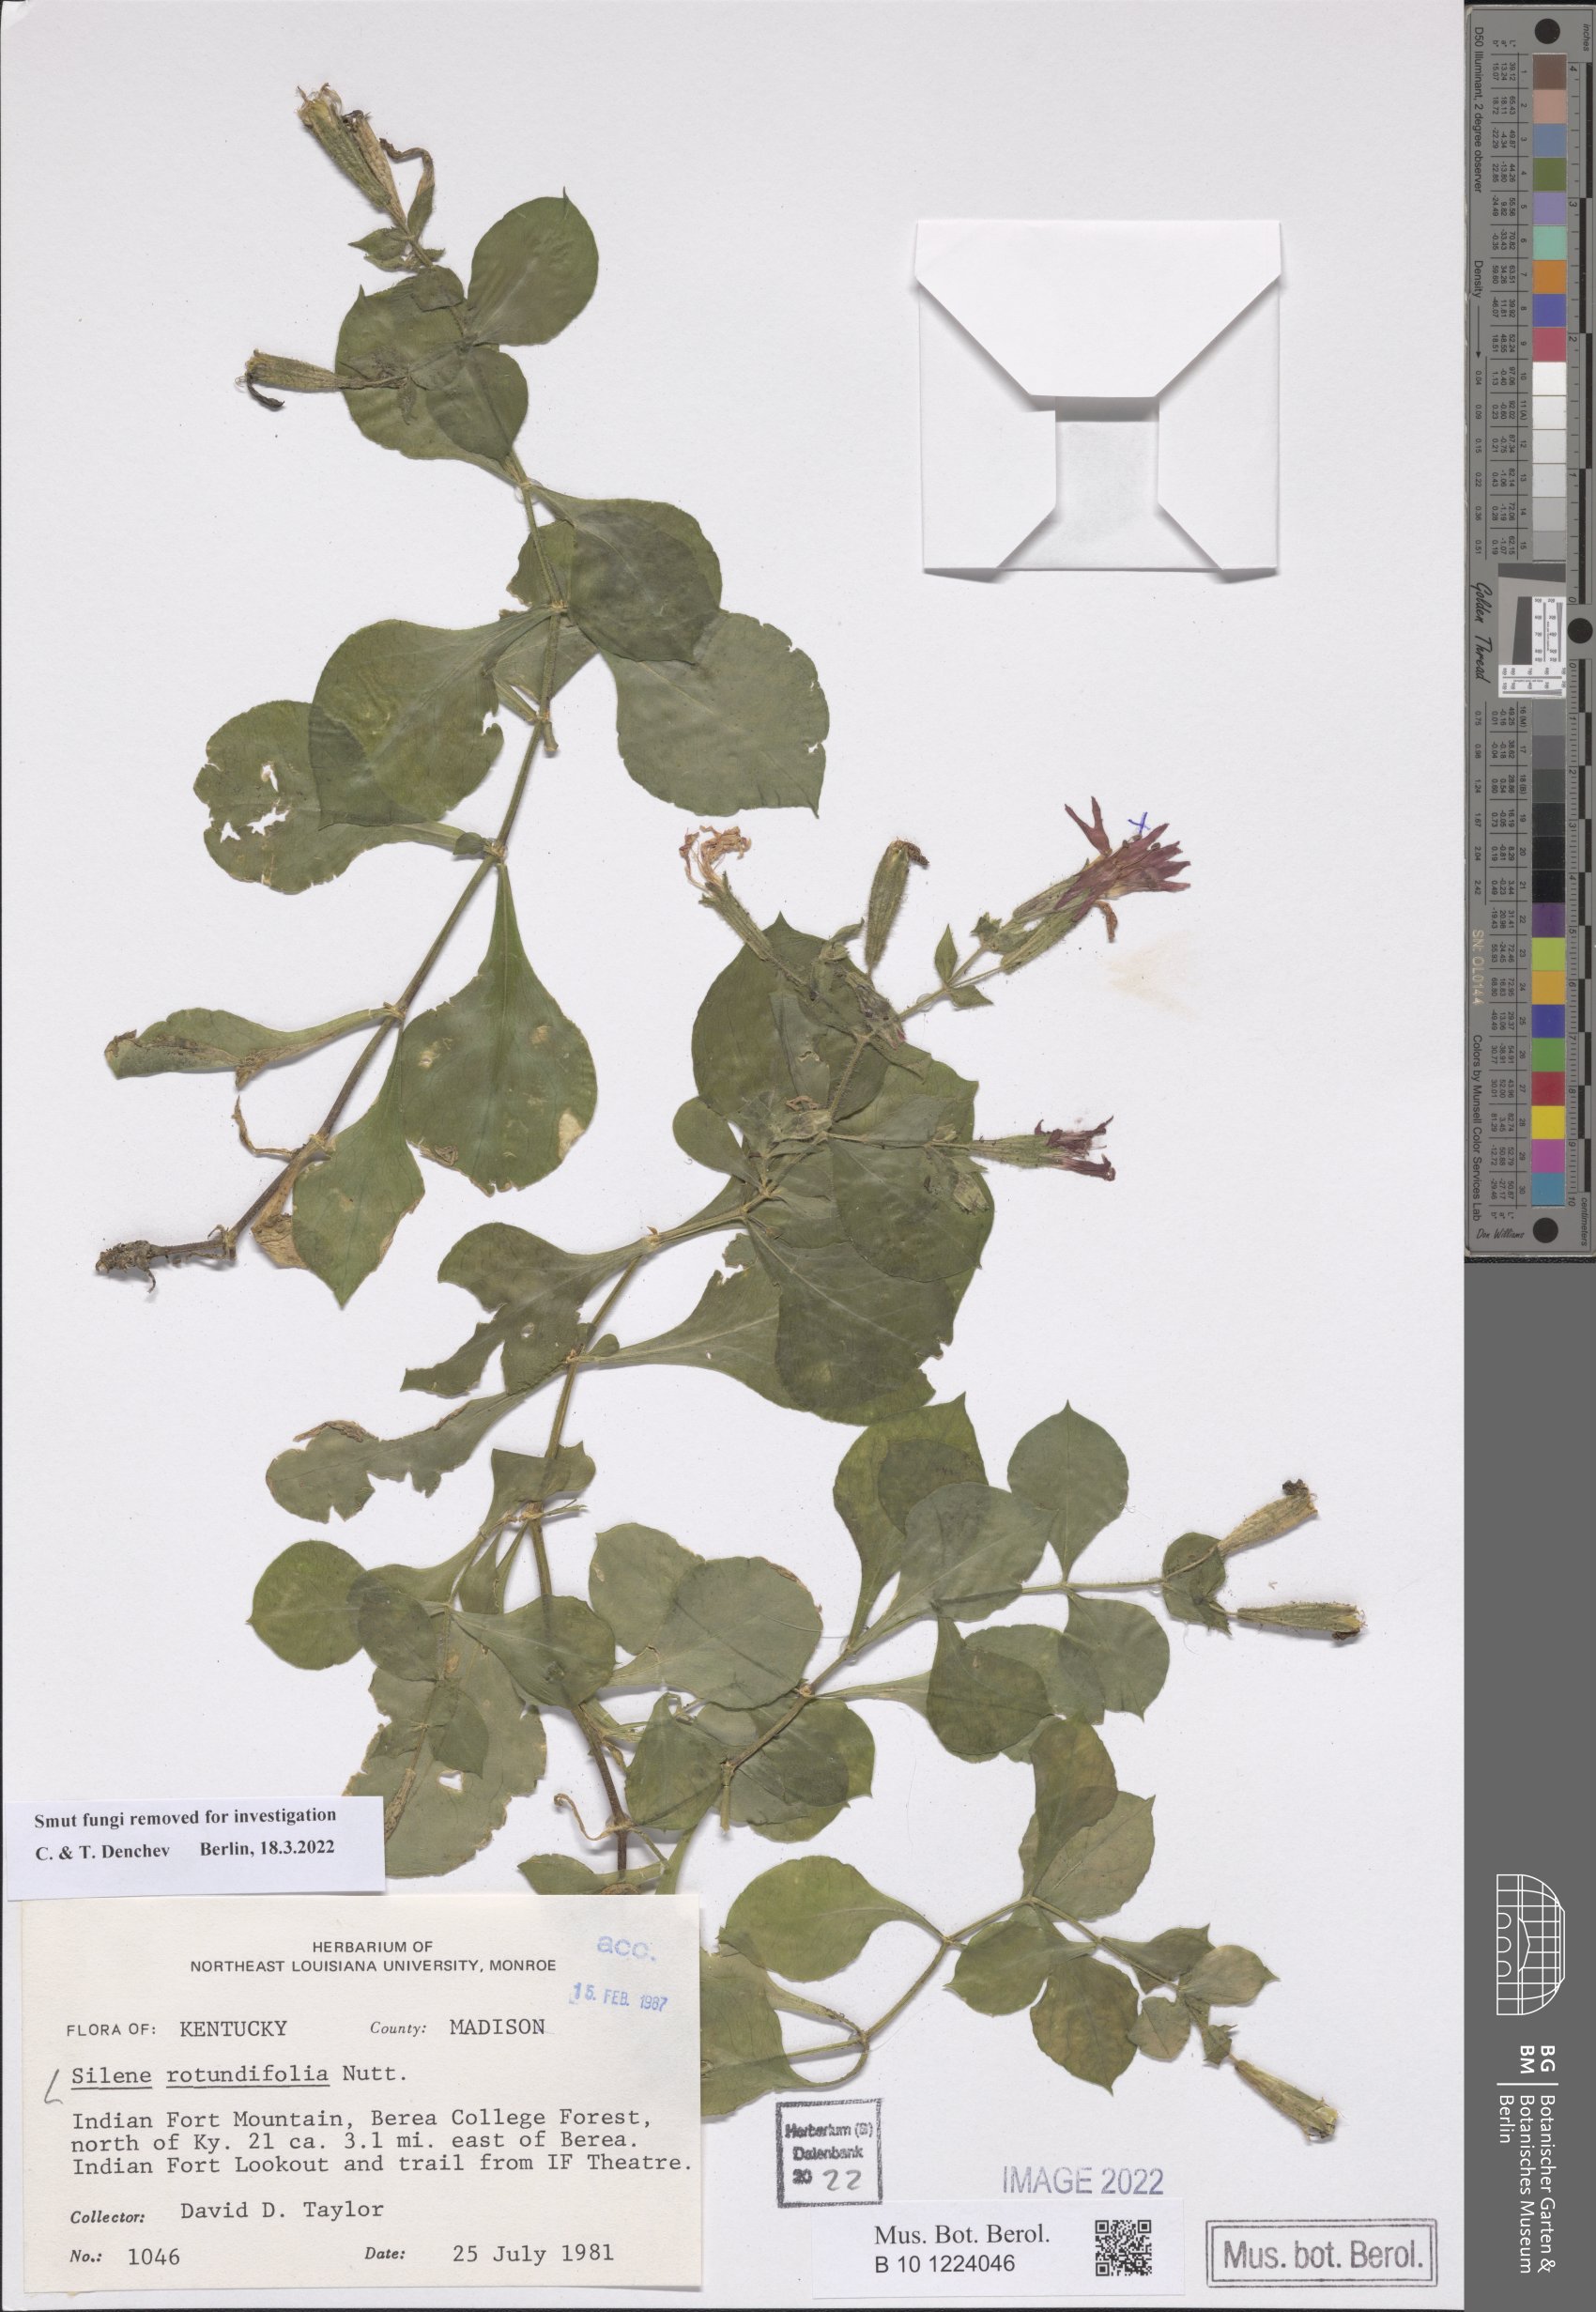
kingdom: Plantae
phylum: Tracheophyta
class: Magnoliopsida
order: Caryophyllales
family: Caryophyllaceae
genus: Silene
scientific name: Silene afromontana
